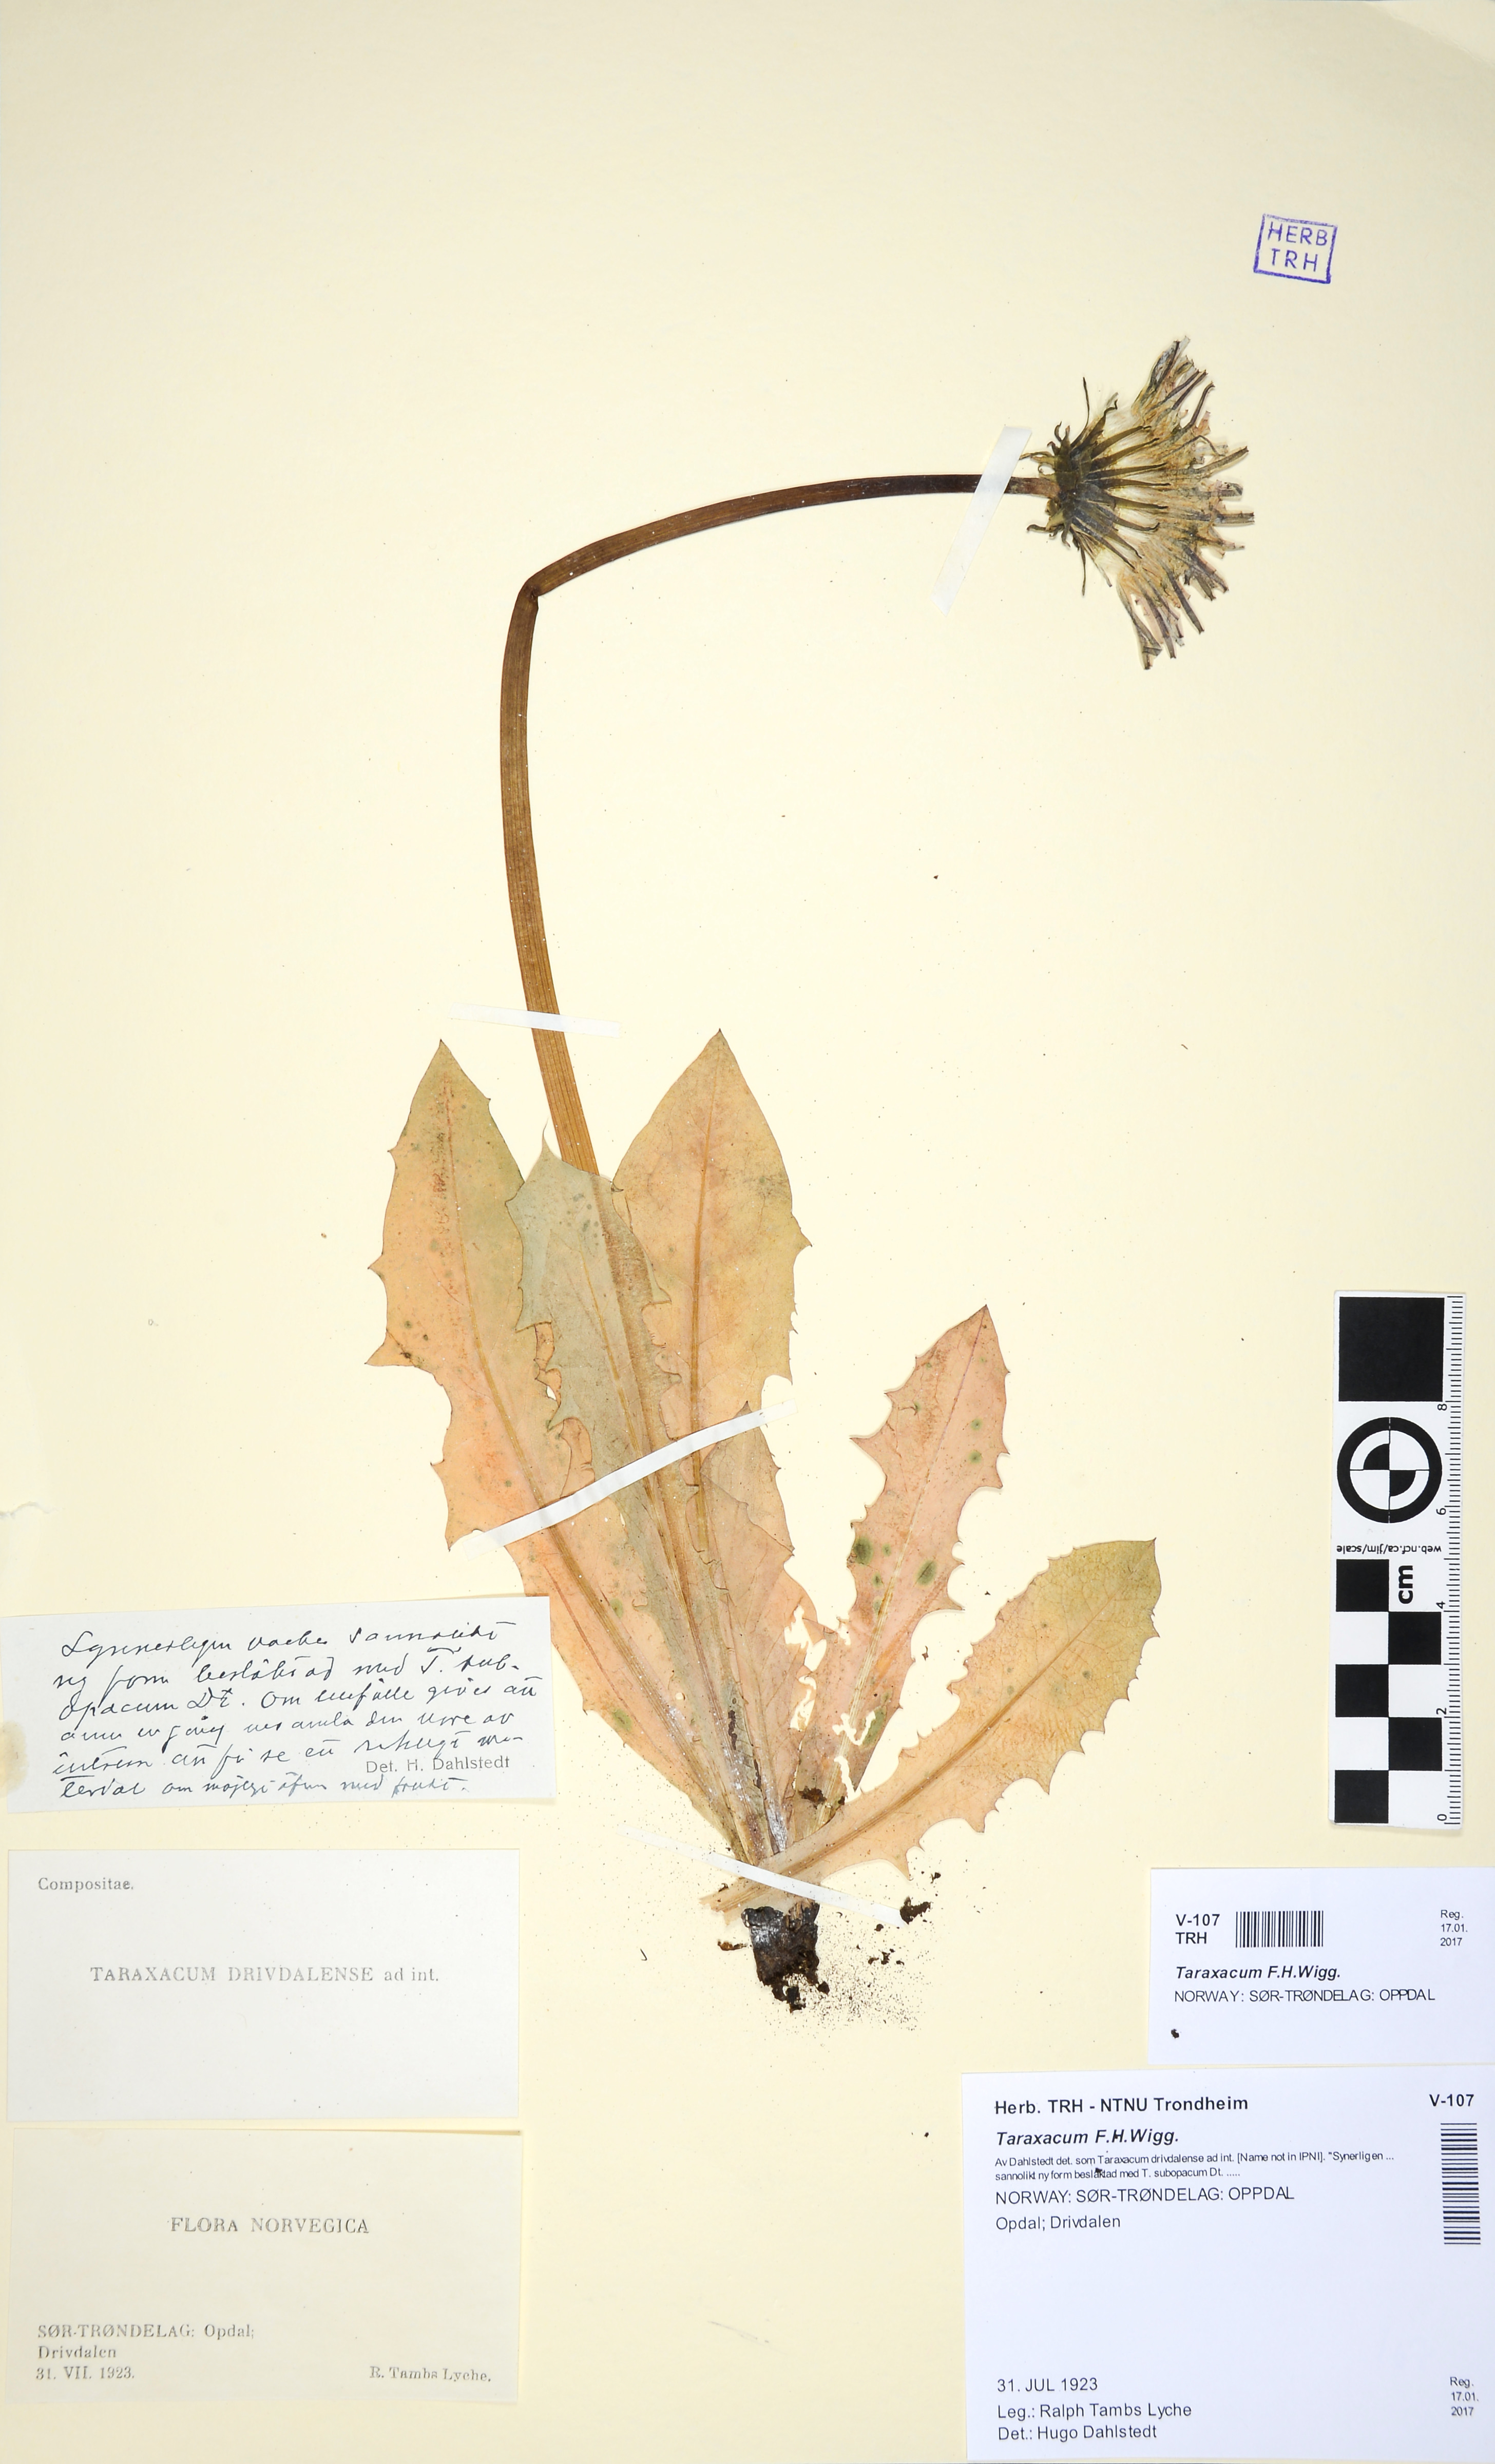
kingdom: Plantae
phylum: Tracheophyta
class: Magnoliopsida
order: Asterales
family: Asteraceae
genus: Taraxacum
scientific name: Taraxacum
